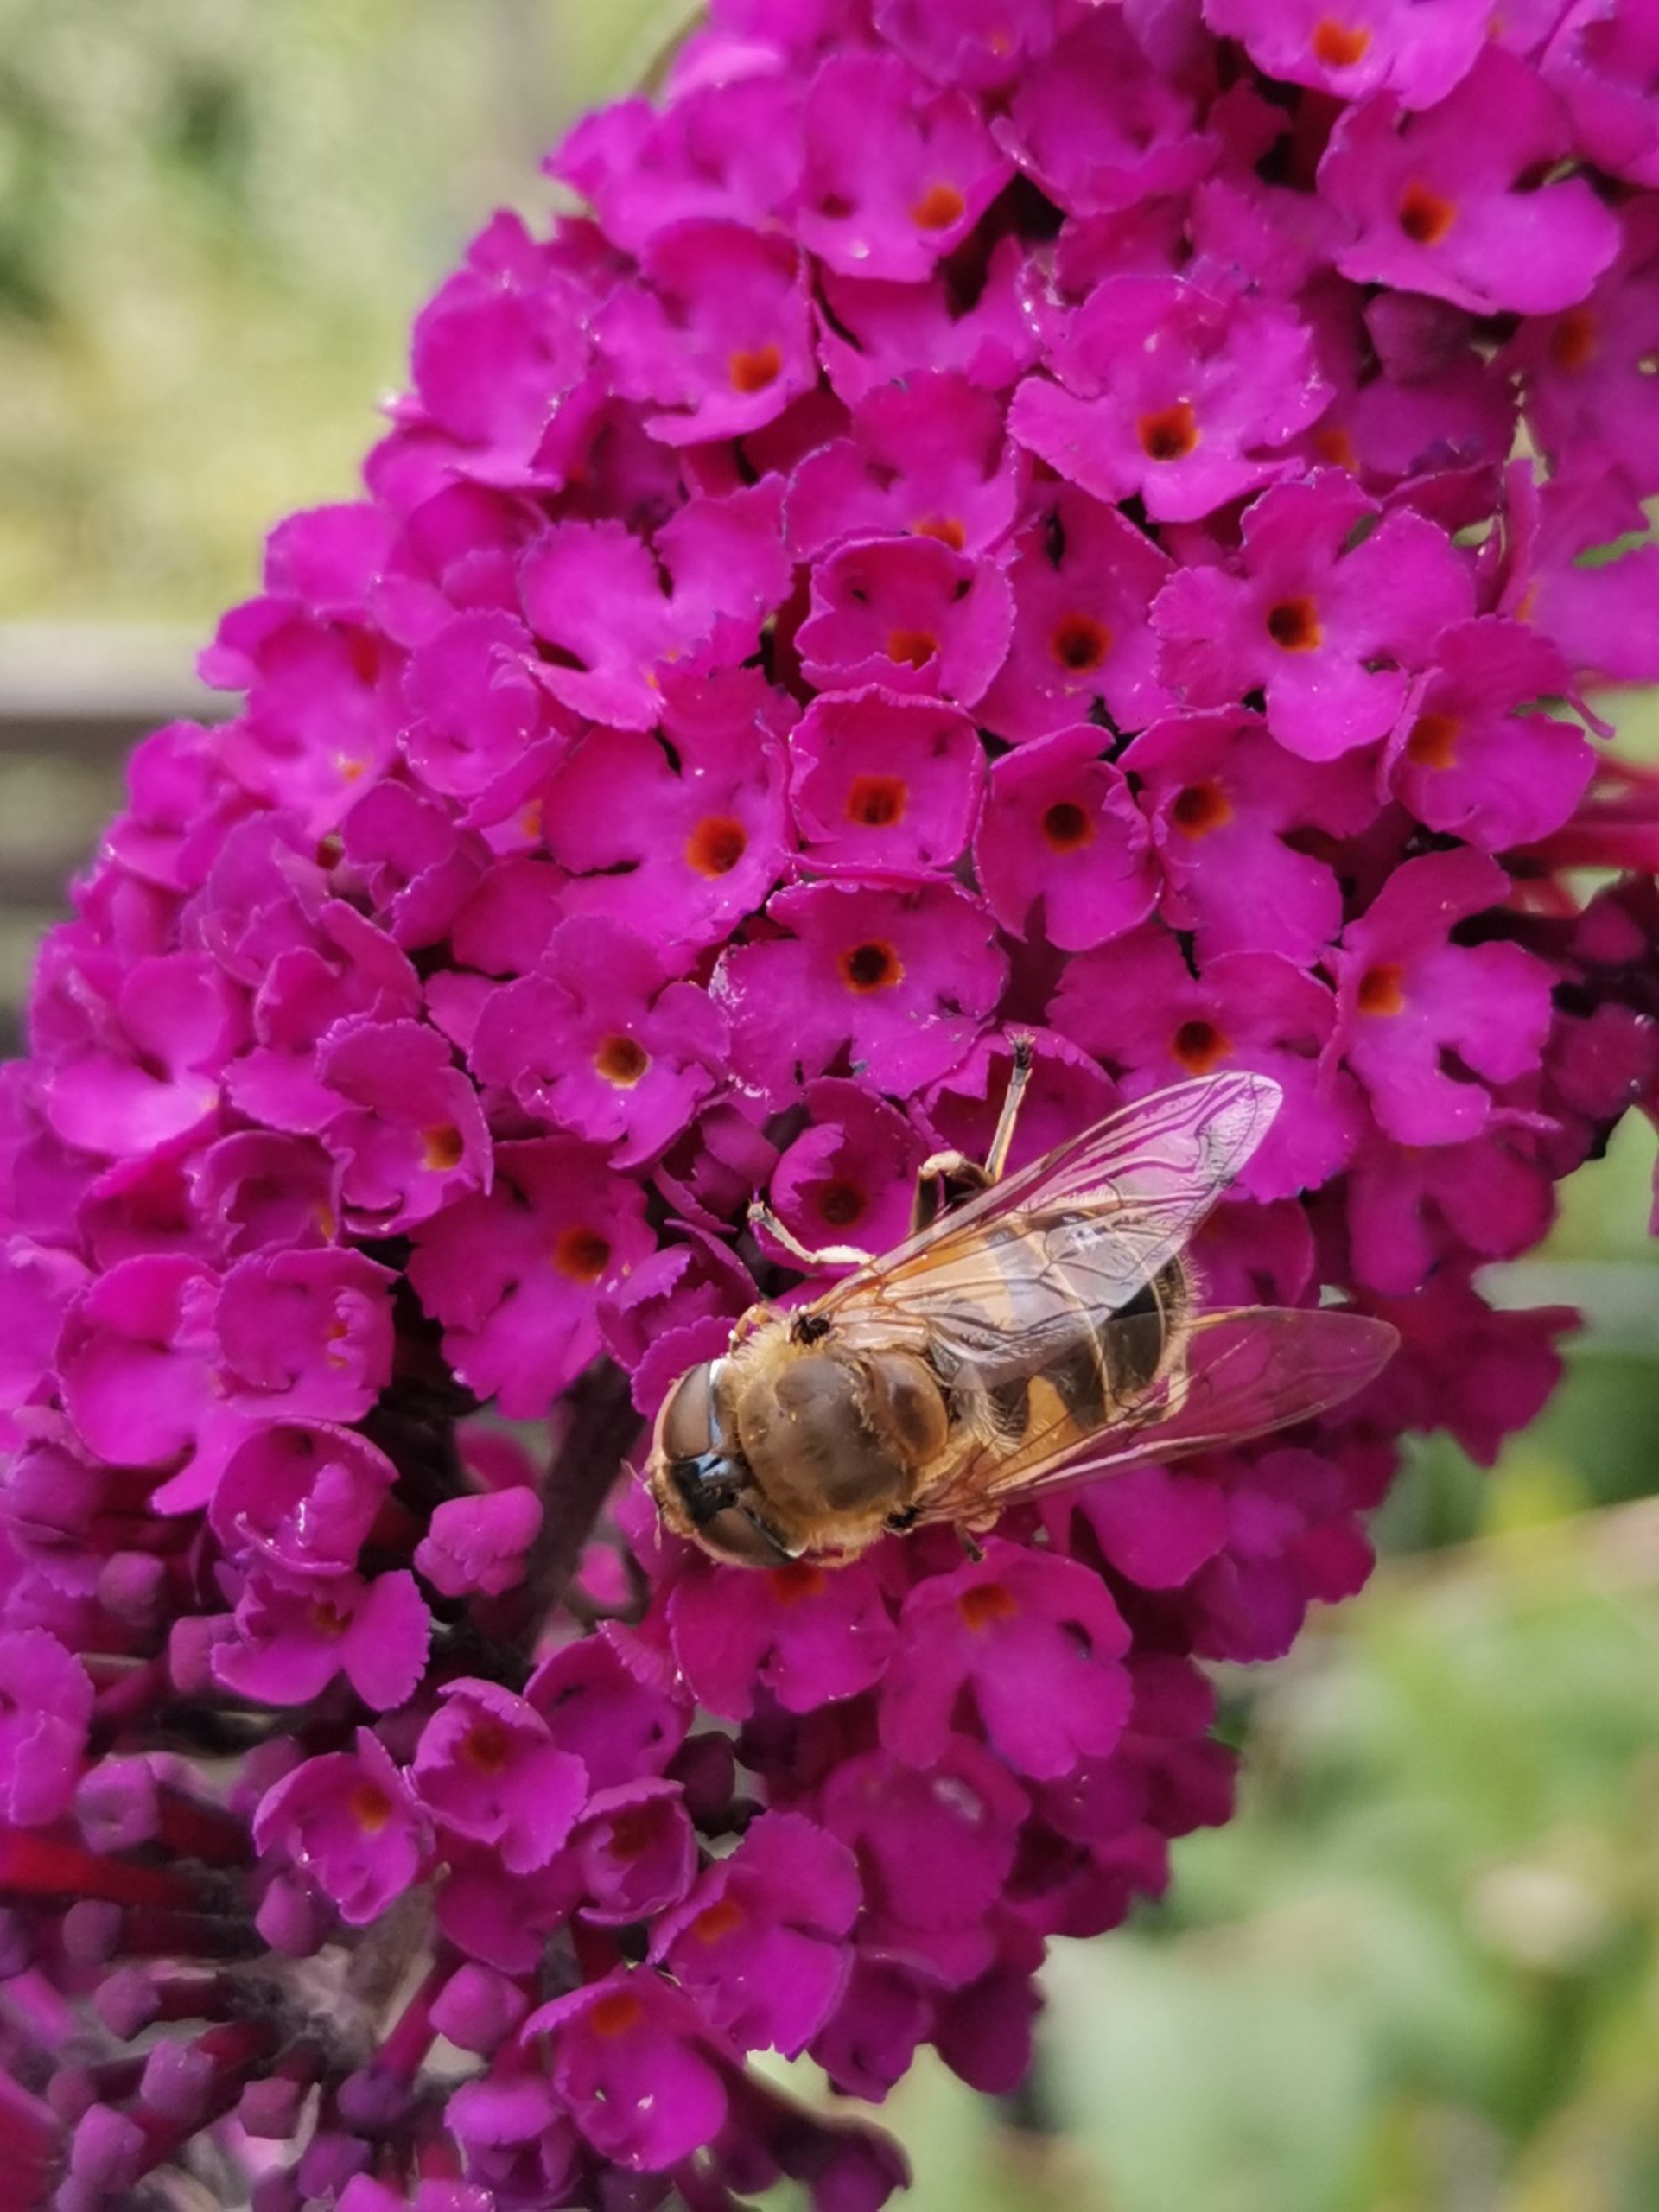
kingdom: Animalia
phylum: Arthropoda
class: Insecta
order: Diptera
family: Syrphidae
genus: Eristalis
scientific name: Eristalis
